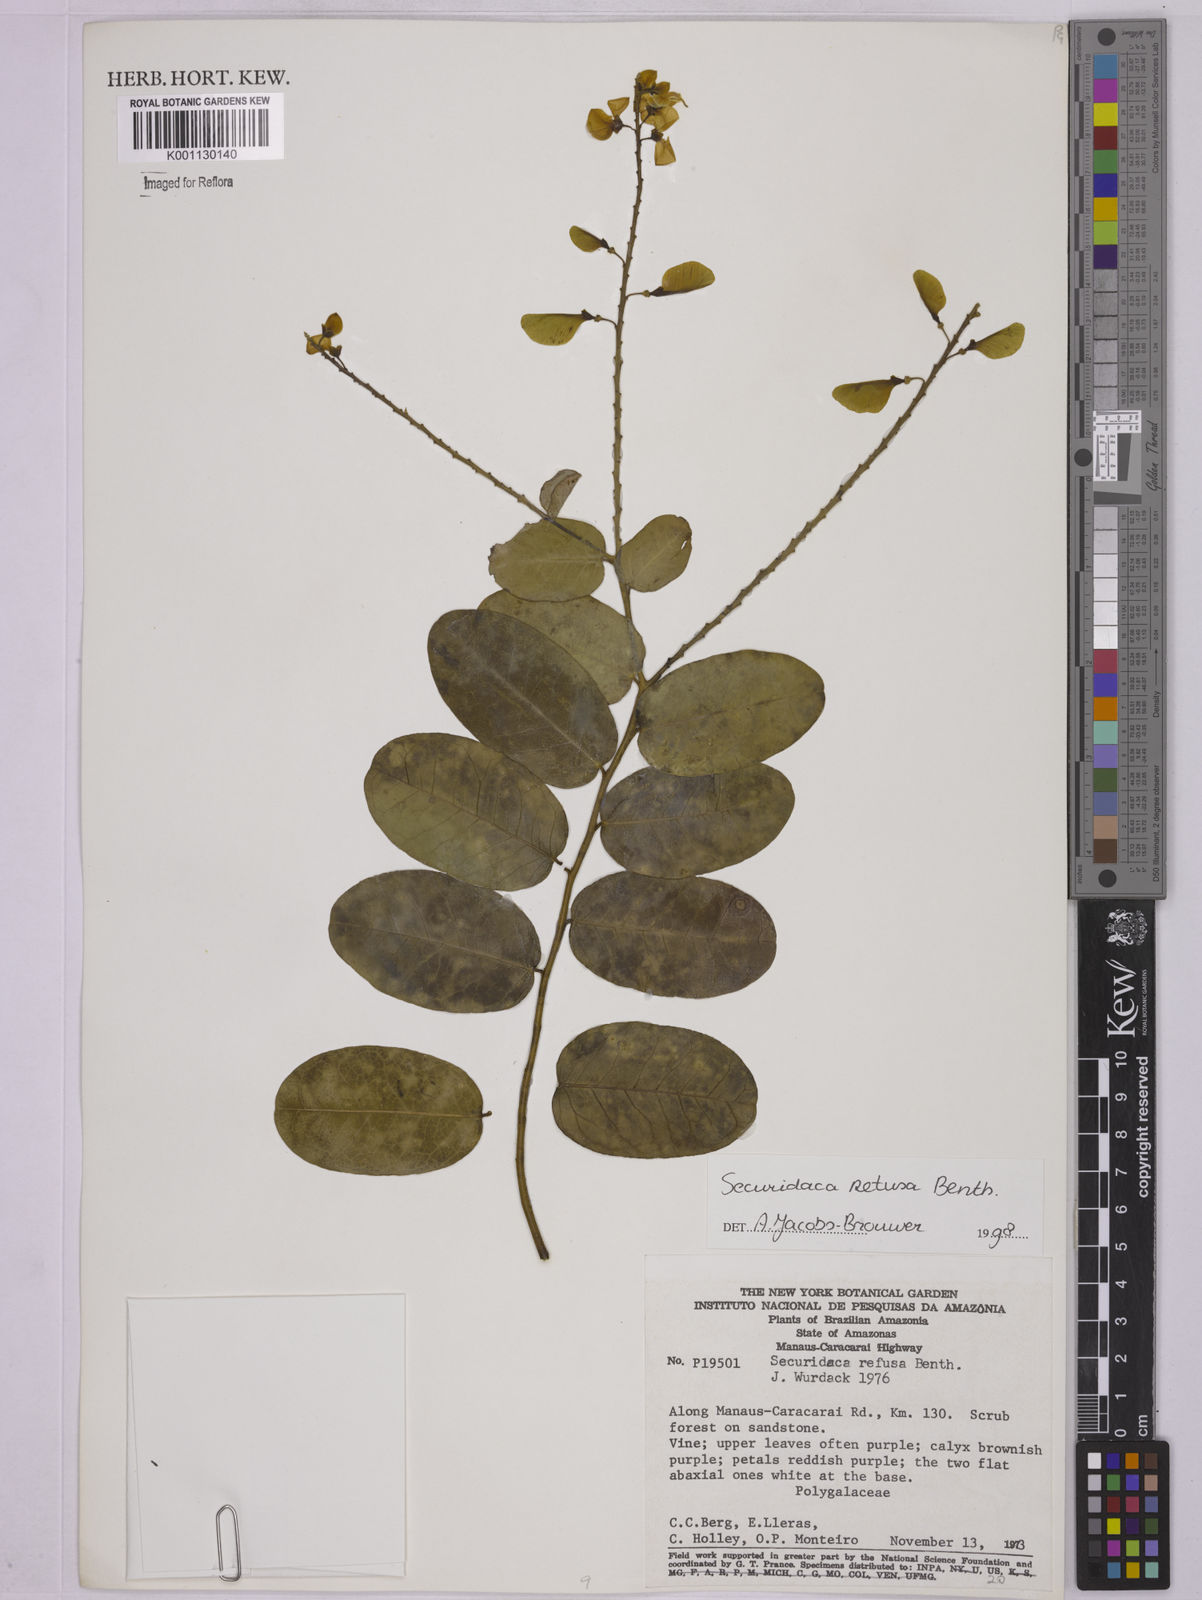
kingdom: Plantae
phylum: Tracheophyta
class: Magnoliopsida
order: Fabales
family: Polygalaceae
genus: Securidaca
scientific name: Securidaca retusa
